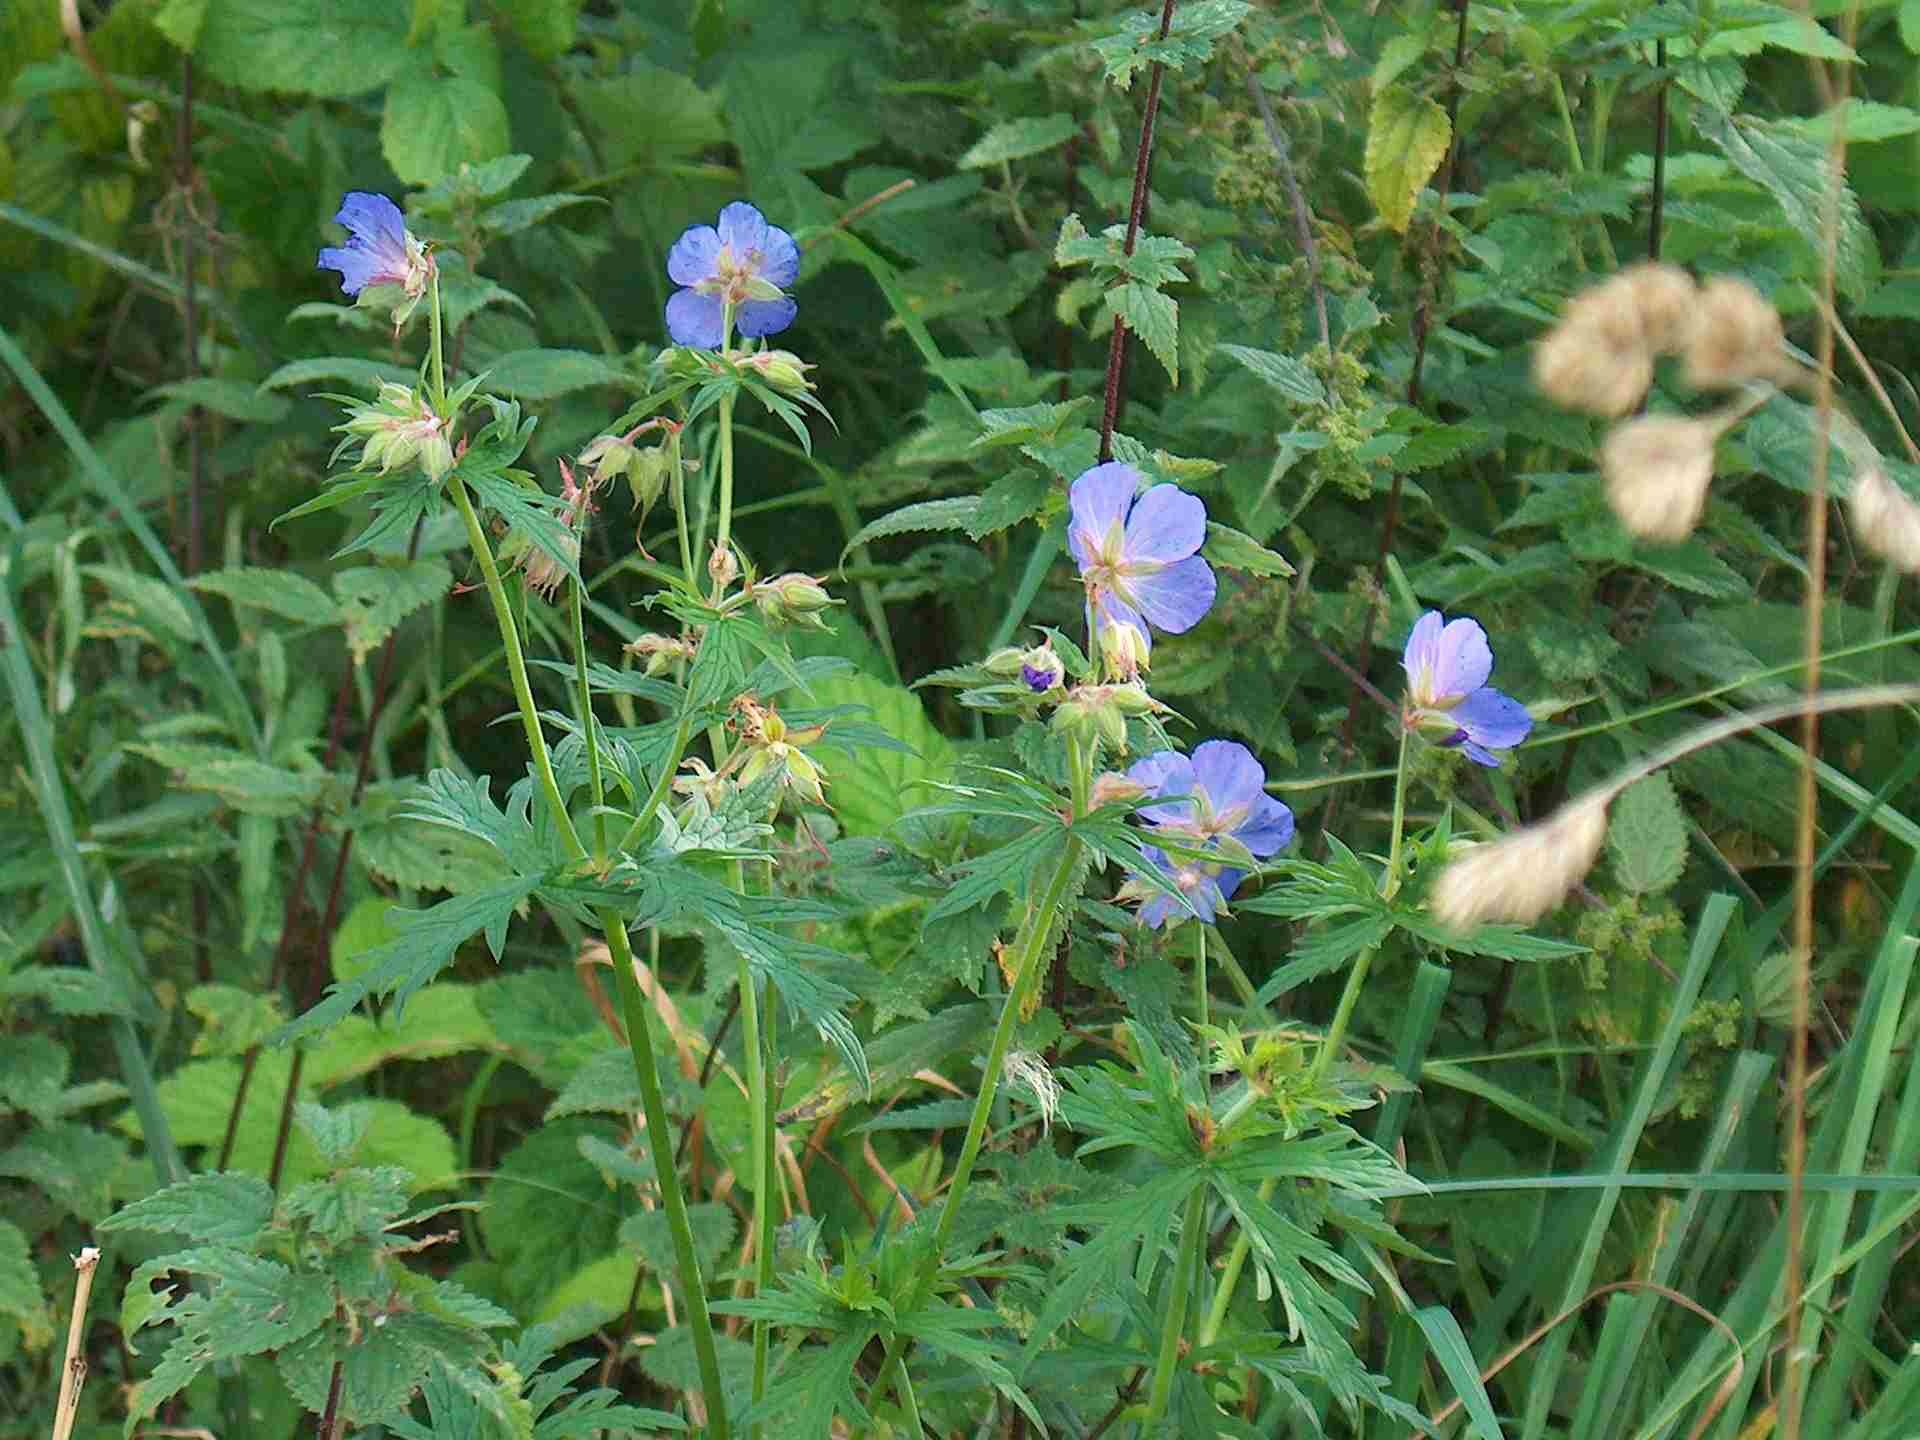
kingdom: Plantae
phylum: Tracheophyta
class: Magnoliopsida
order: Geraniales
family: Geraniaceae
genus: Geranium
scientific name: Geranium pratense
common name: Eng-storkenæb
